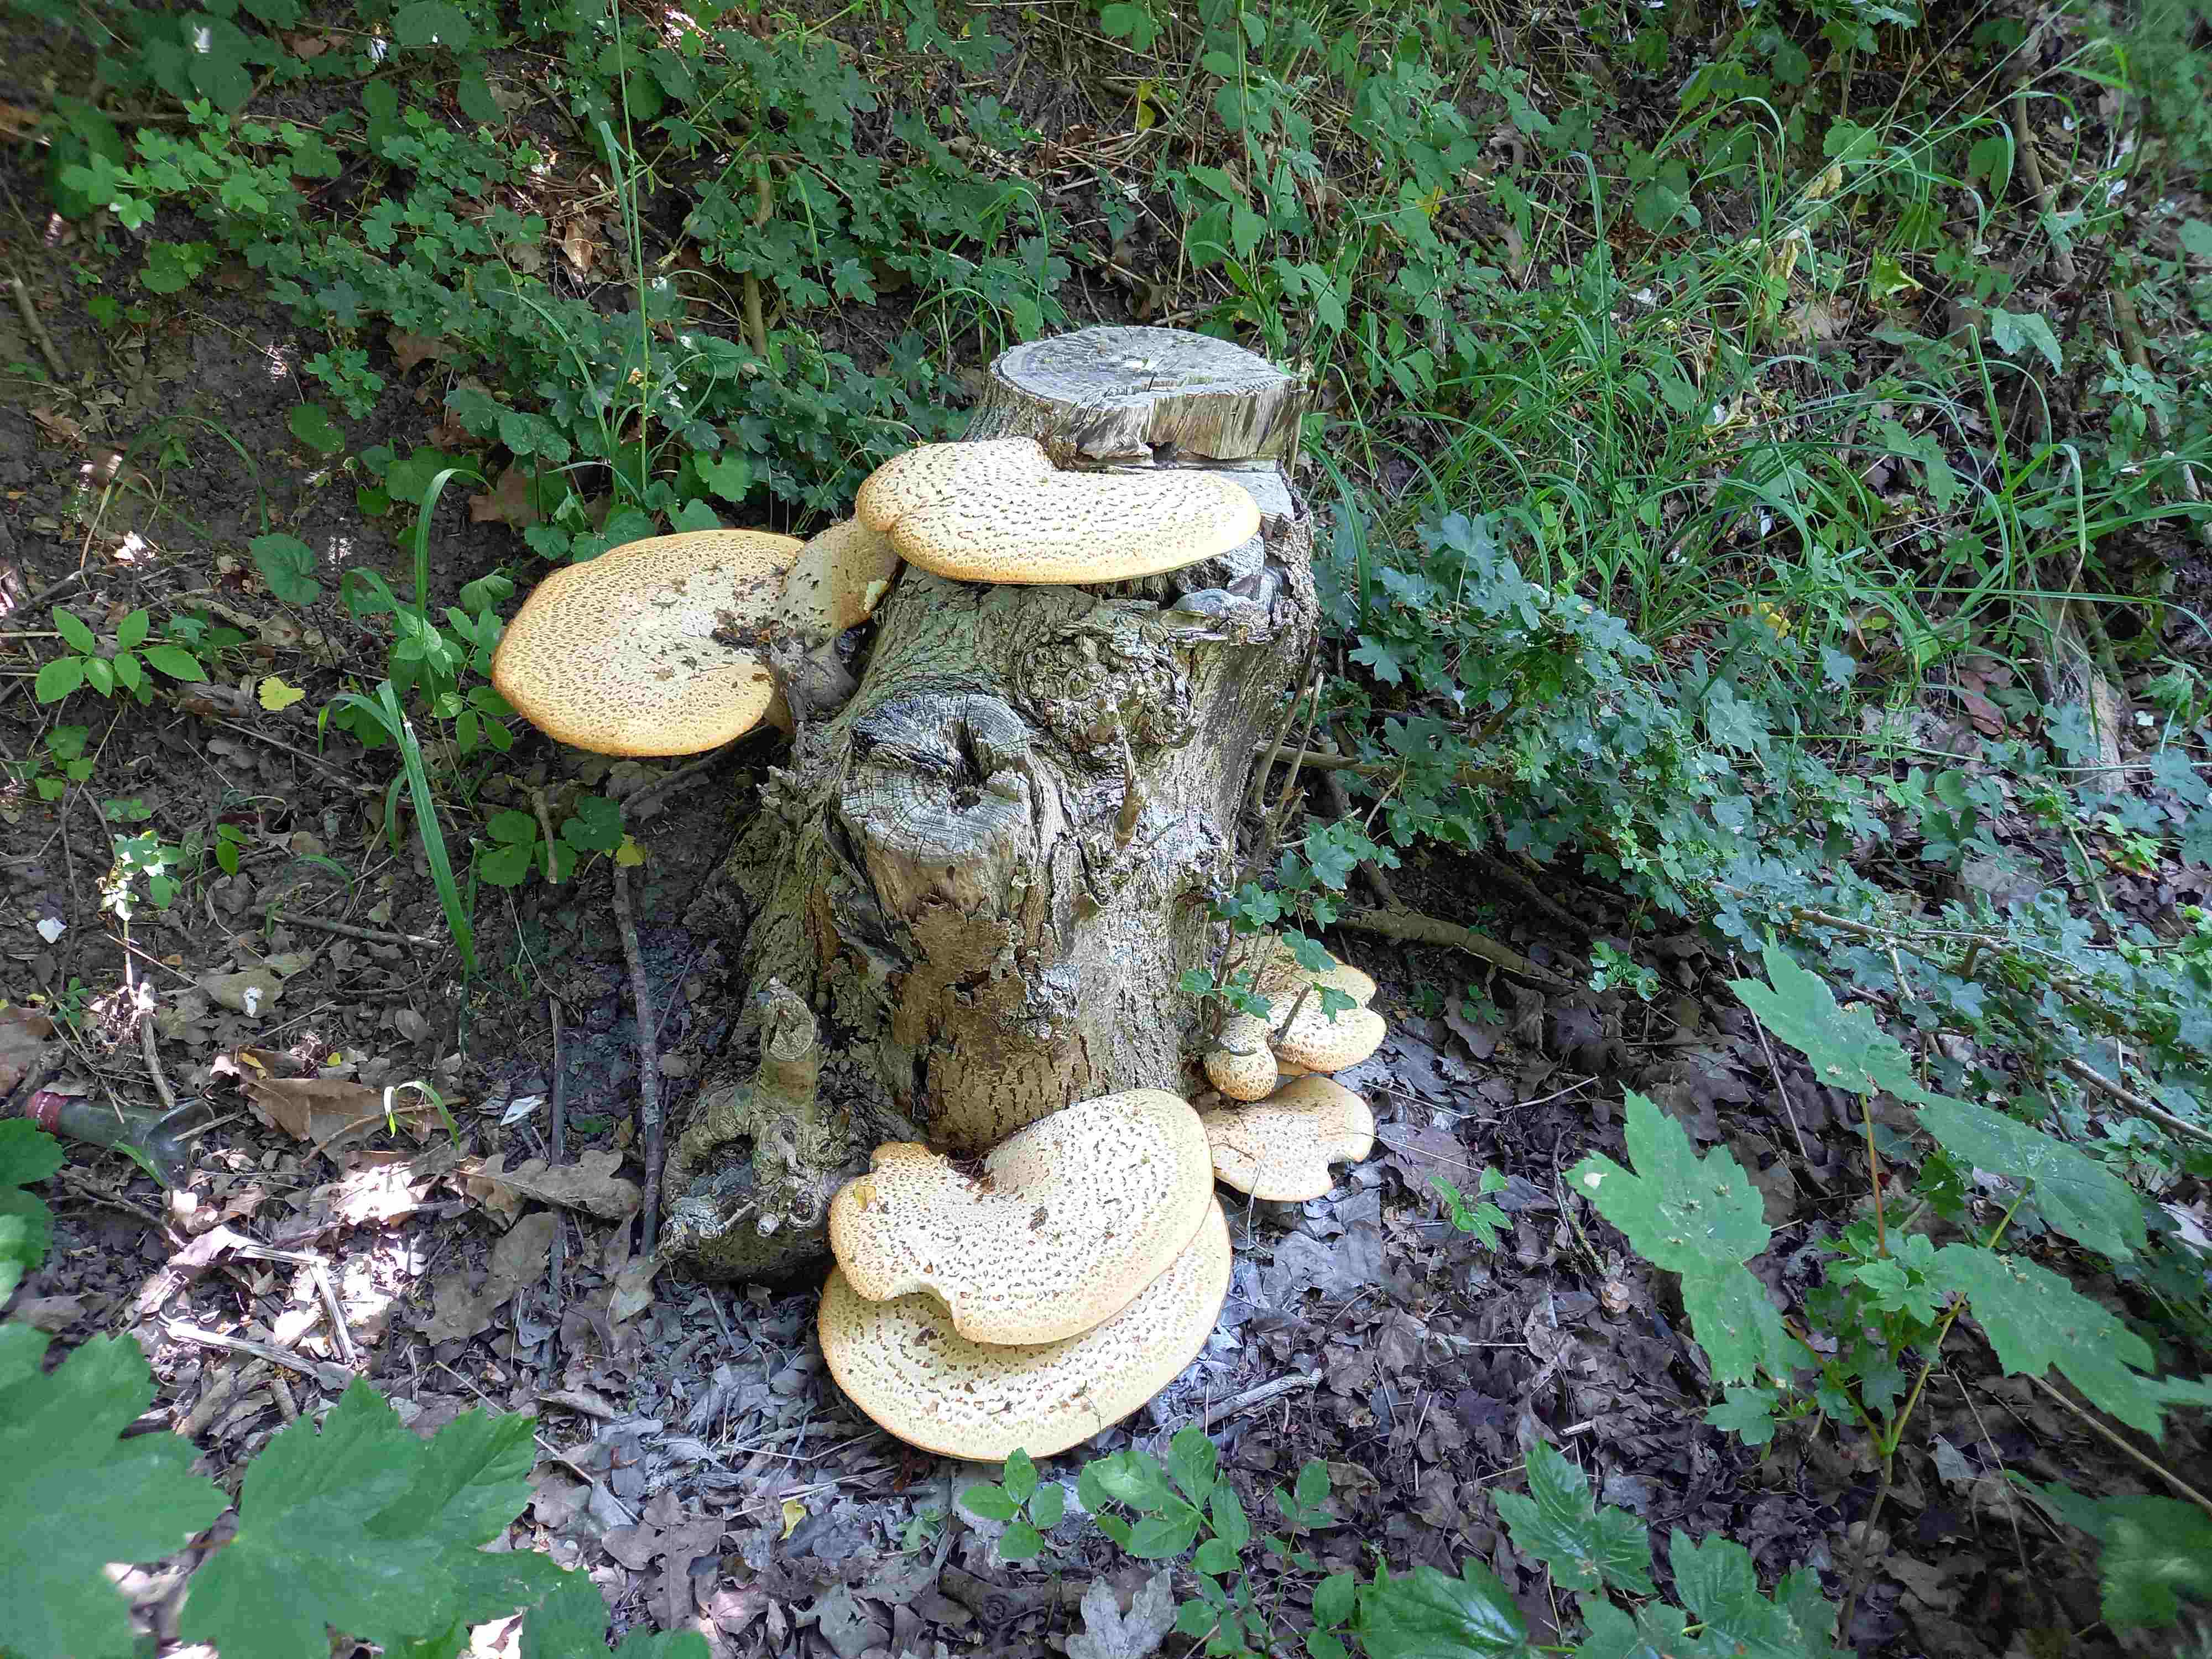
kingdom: Fungi
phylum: Basidiomycota
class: Agaricomycetes
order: Polyporales
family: Polyporaceae
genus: Cerioporus
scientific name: Cerioporus squamosus
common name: skællet stilkporesvamp
